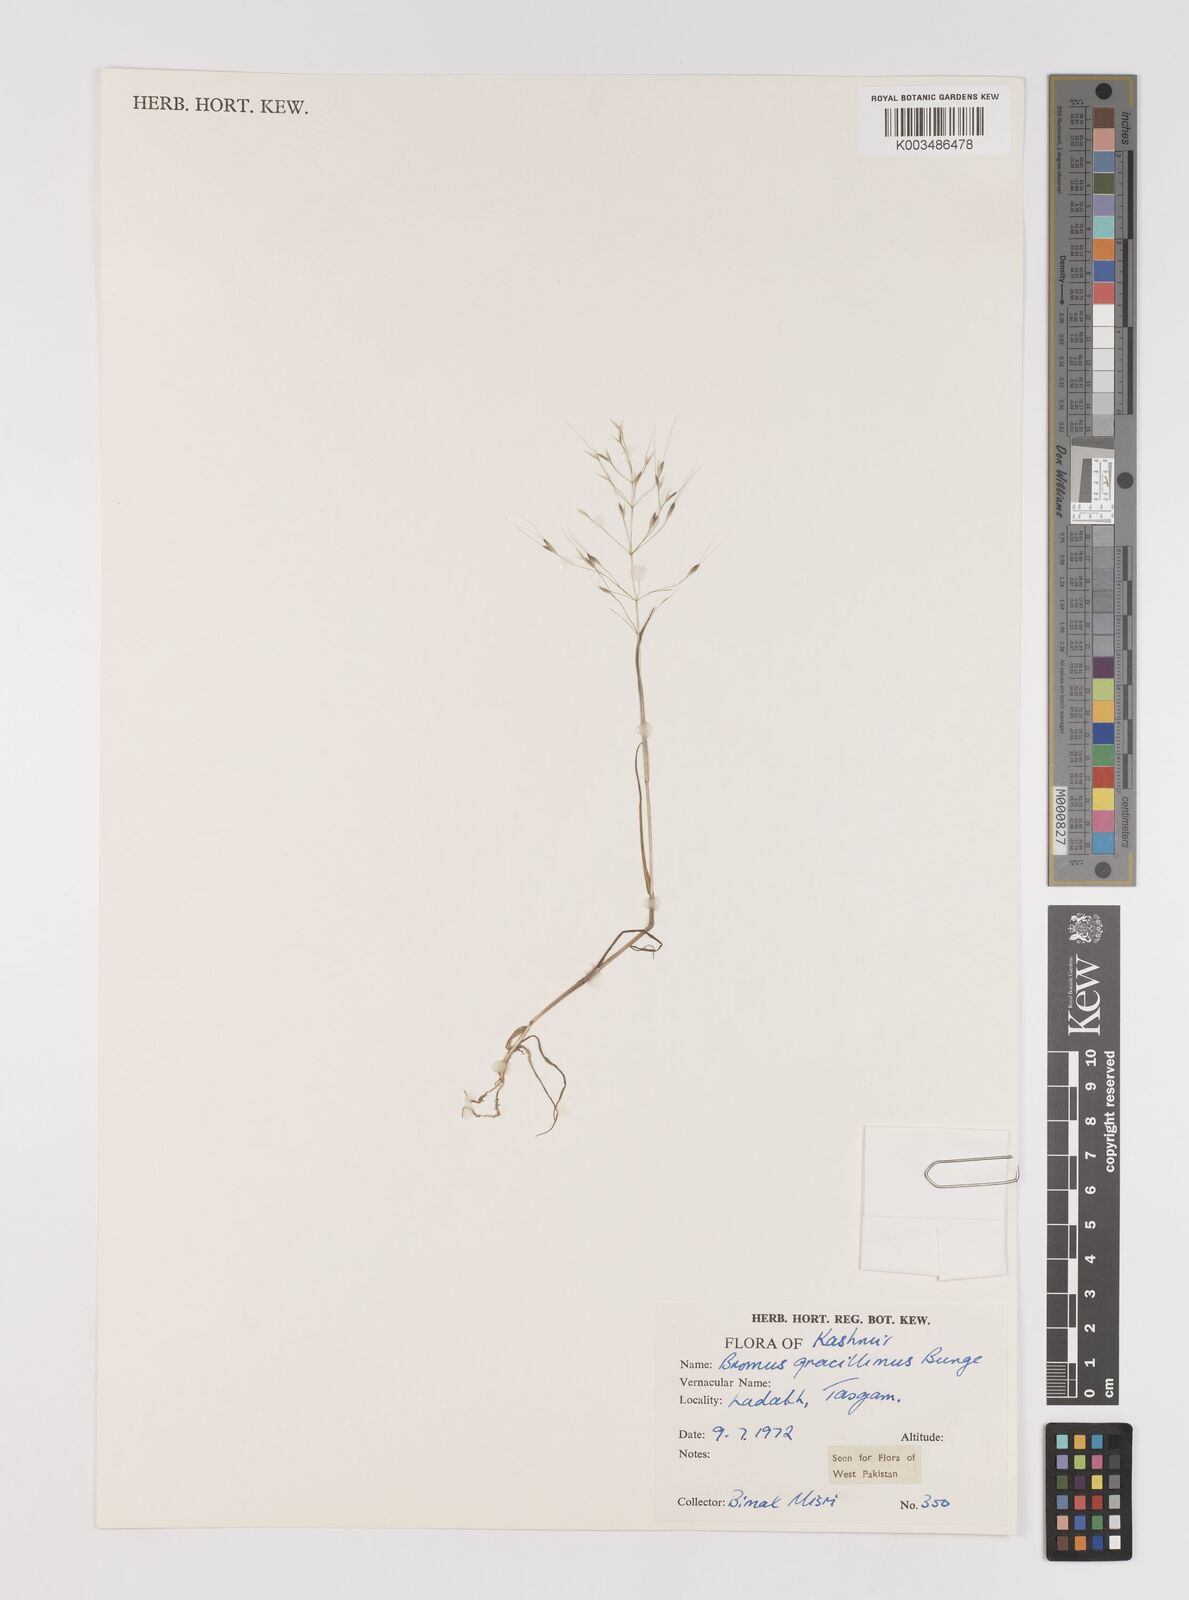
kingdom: Plantae
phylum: Tracheophyta
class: Liliopsida
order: Poales
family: Poaceae
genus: Bromus
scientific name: Bromus gracillimus
